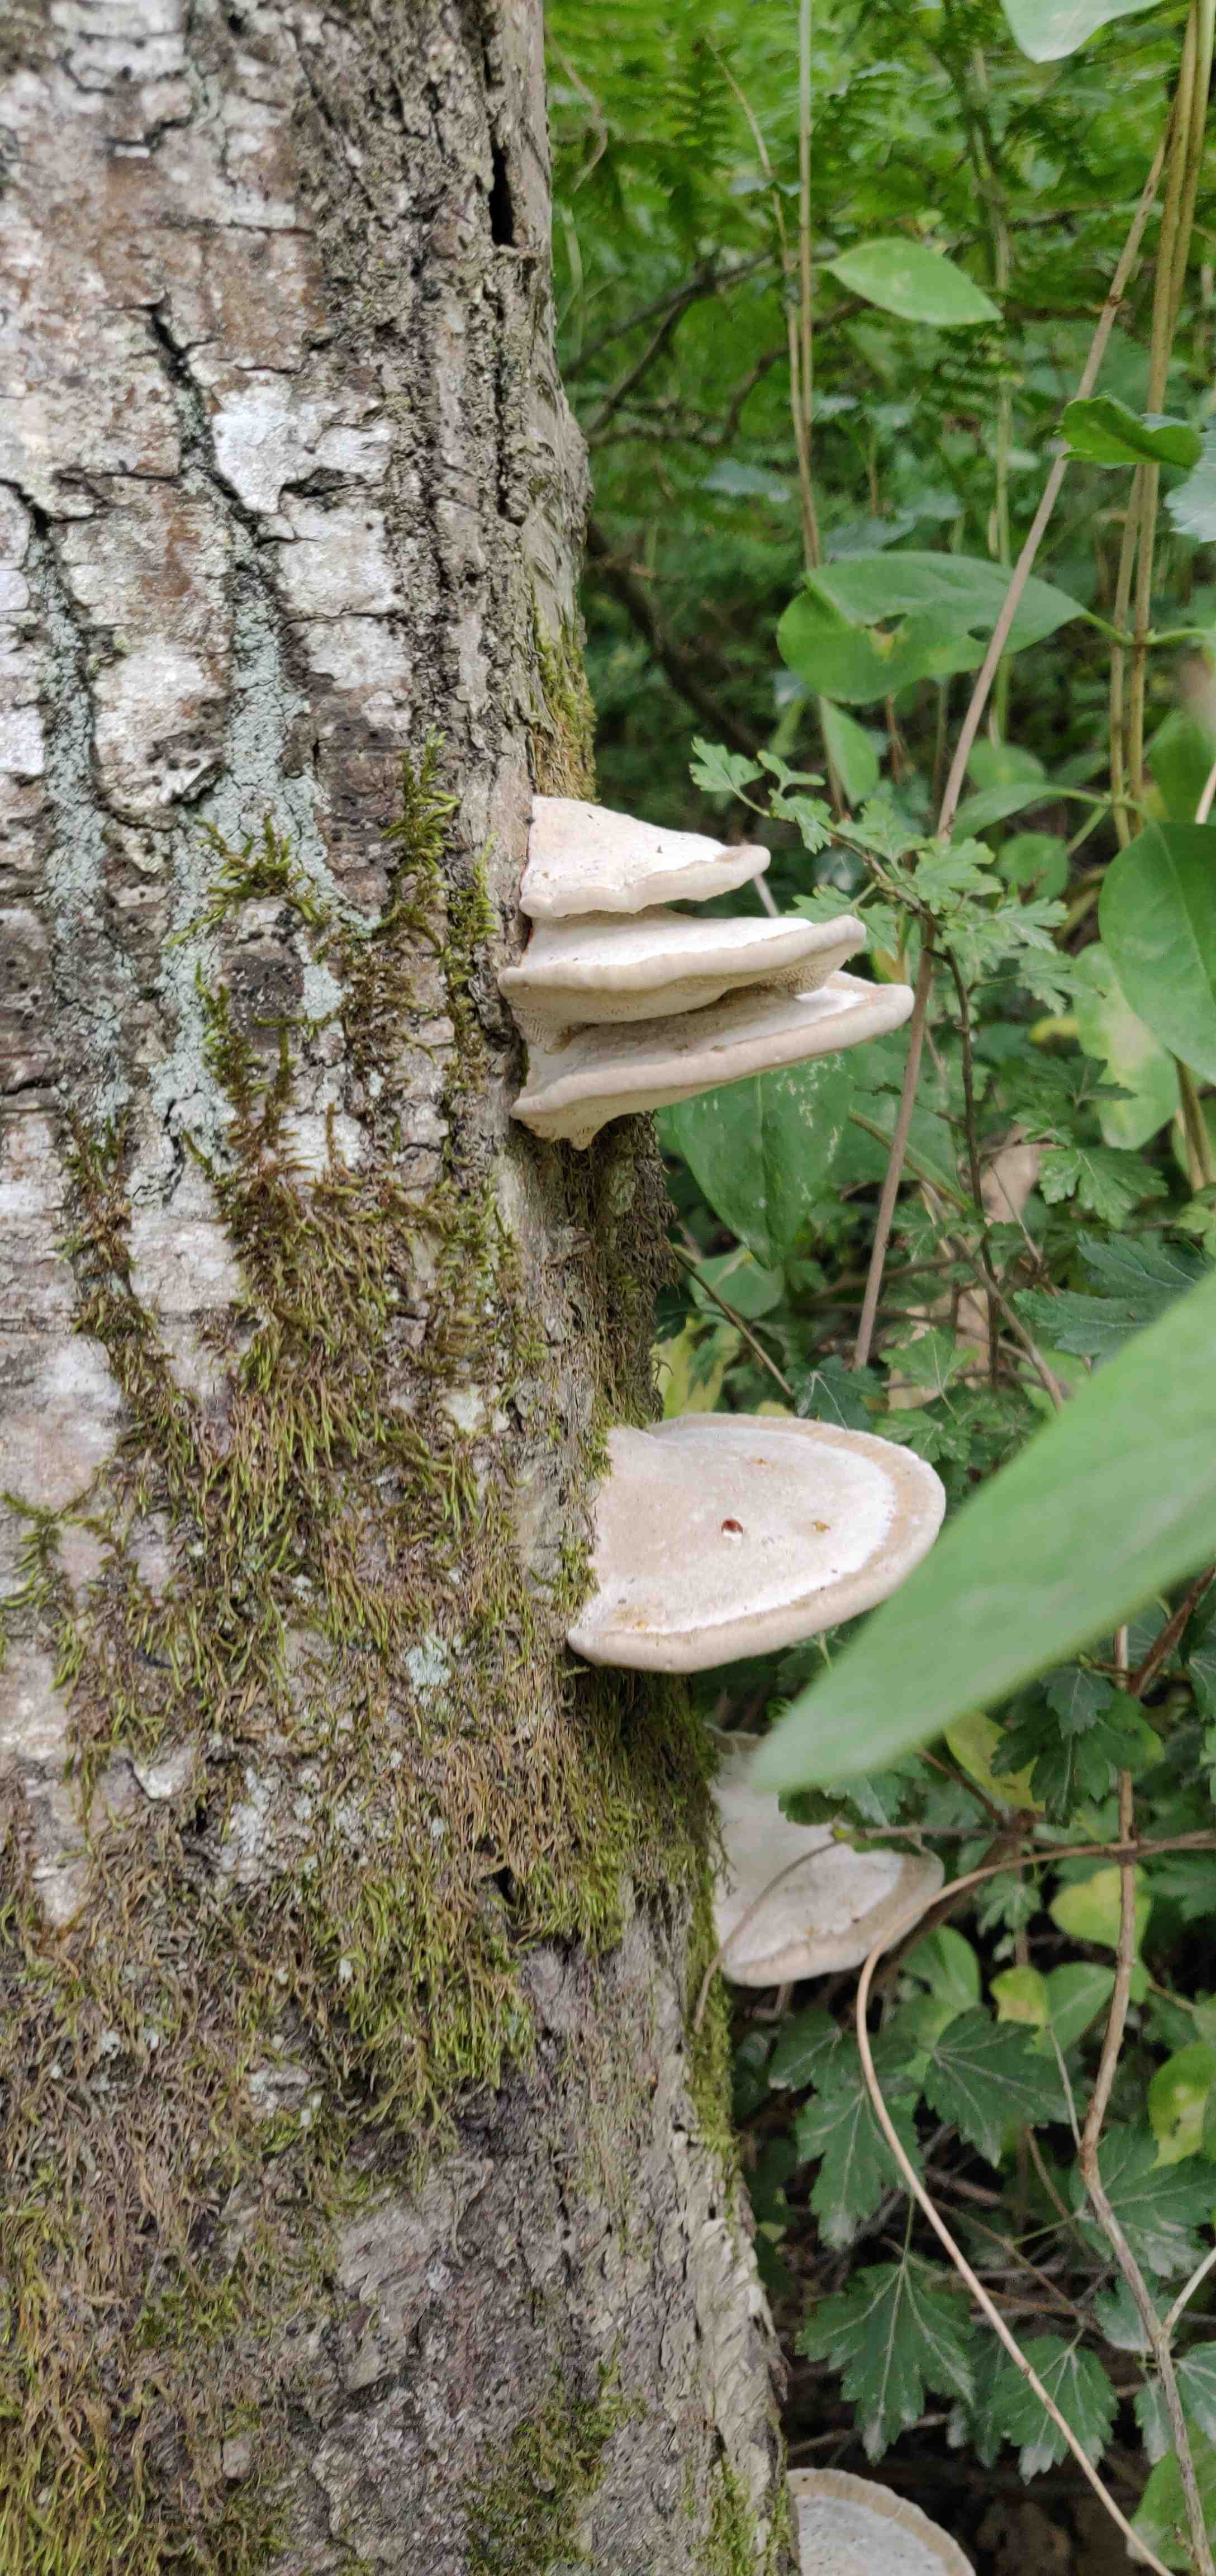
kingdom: Fungi
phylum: Basidiomycota
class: Agaricomycetes
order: Polyporales
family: Polyporaceae
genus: Trametes
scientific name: Trametes hirsuta
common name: håret læderporesvamp
